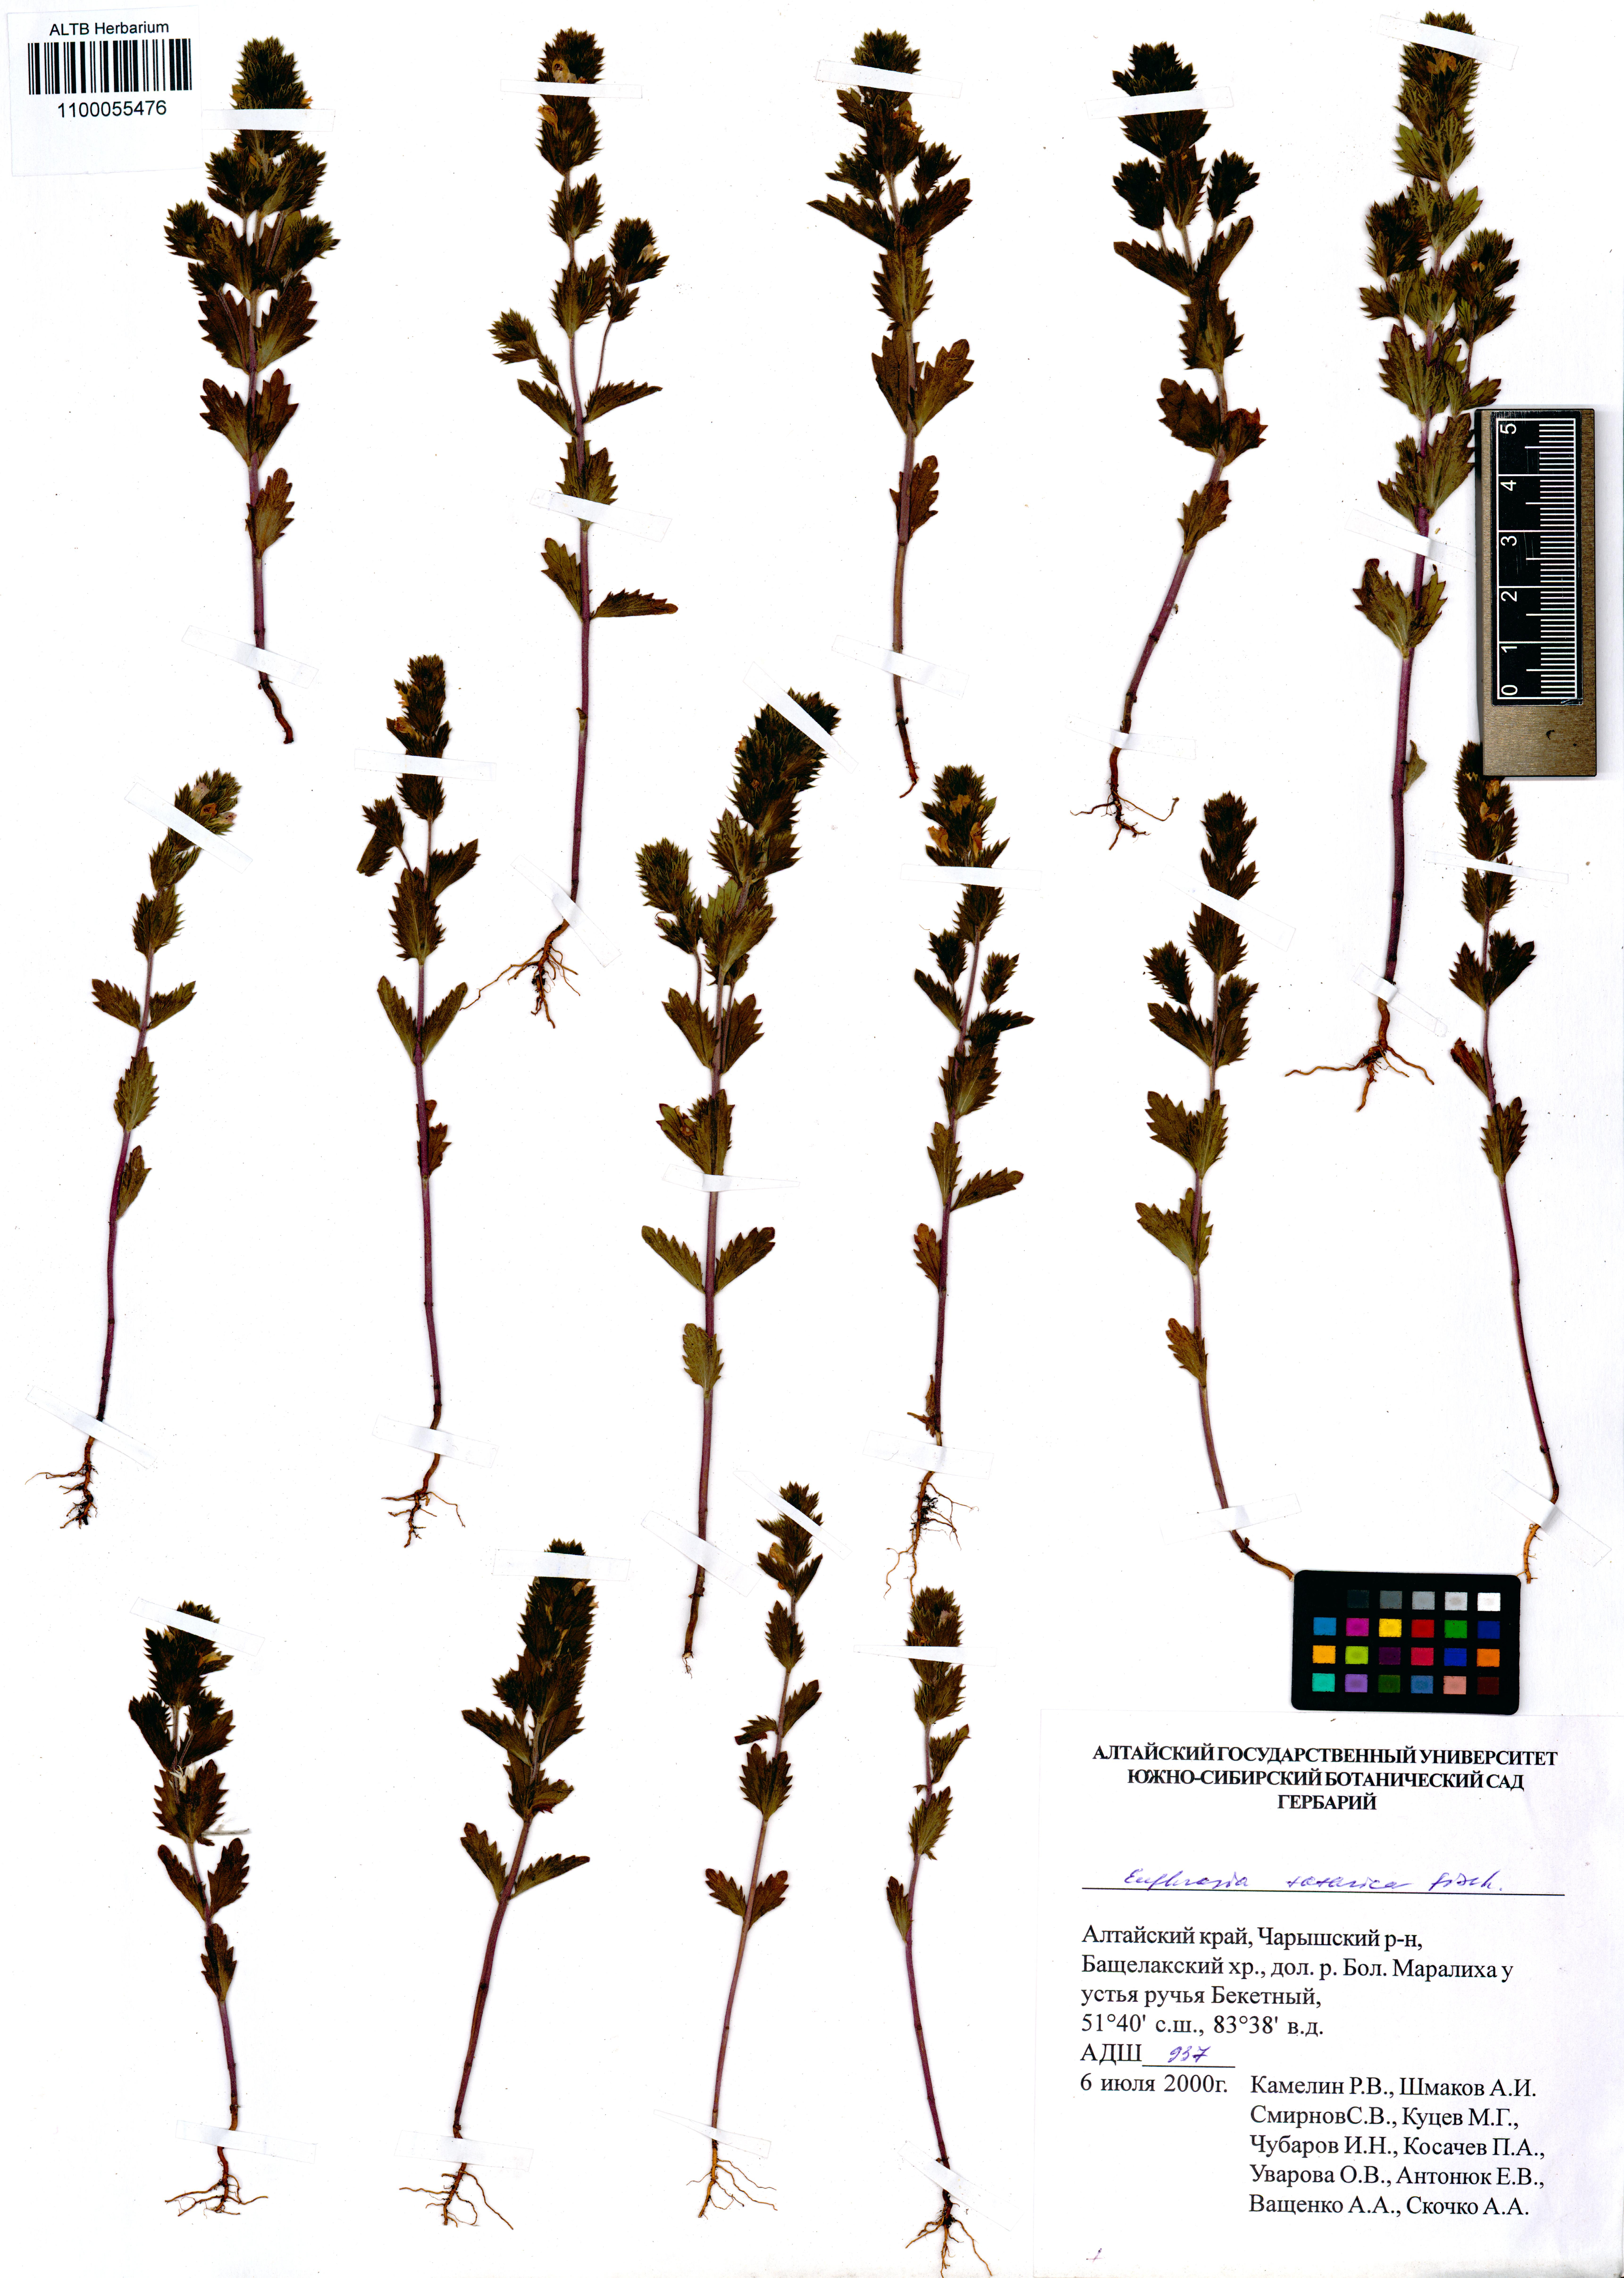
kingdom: Plantae
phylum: Tracheophyta
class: Magnoliopsida
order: Lamiales
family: Orobanchaceae
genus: Euphrasia
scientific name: Euphrasia pectinata
